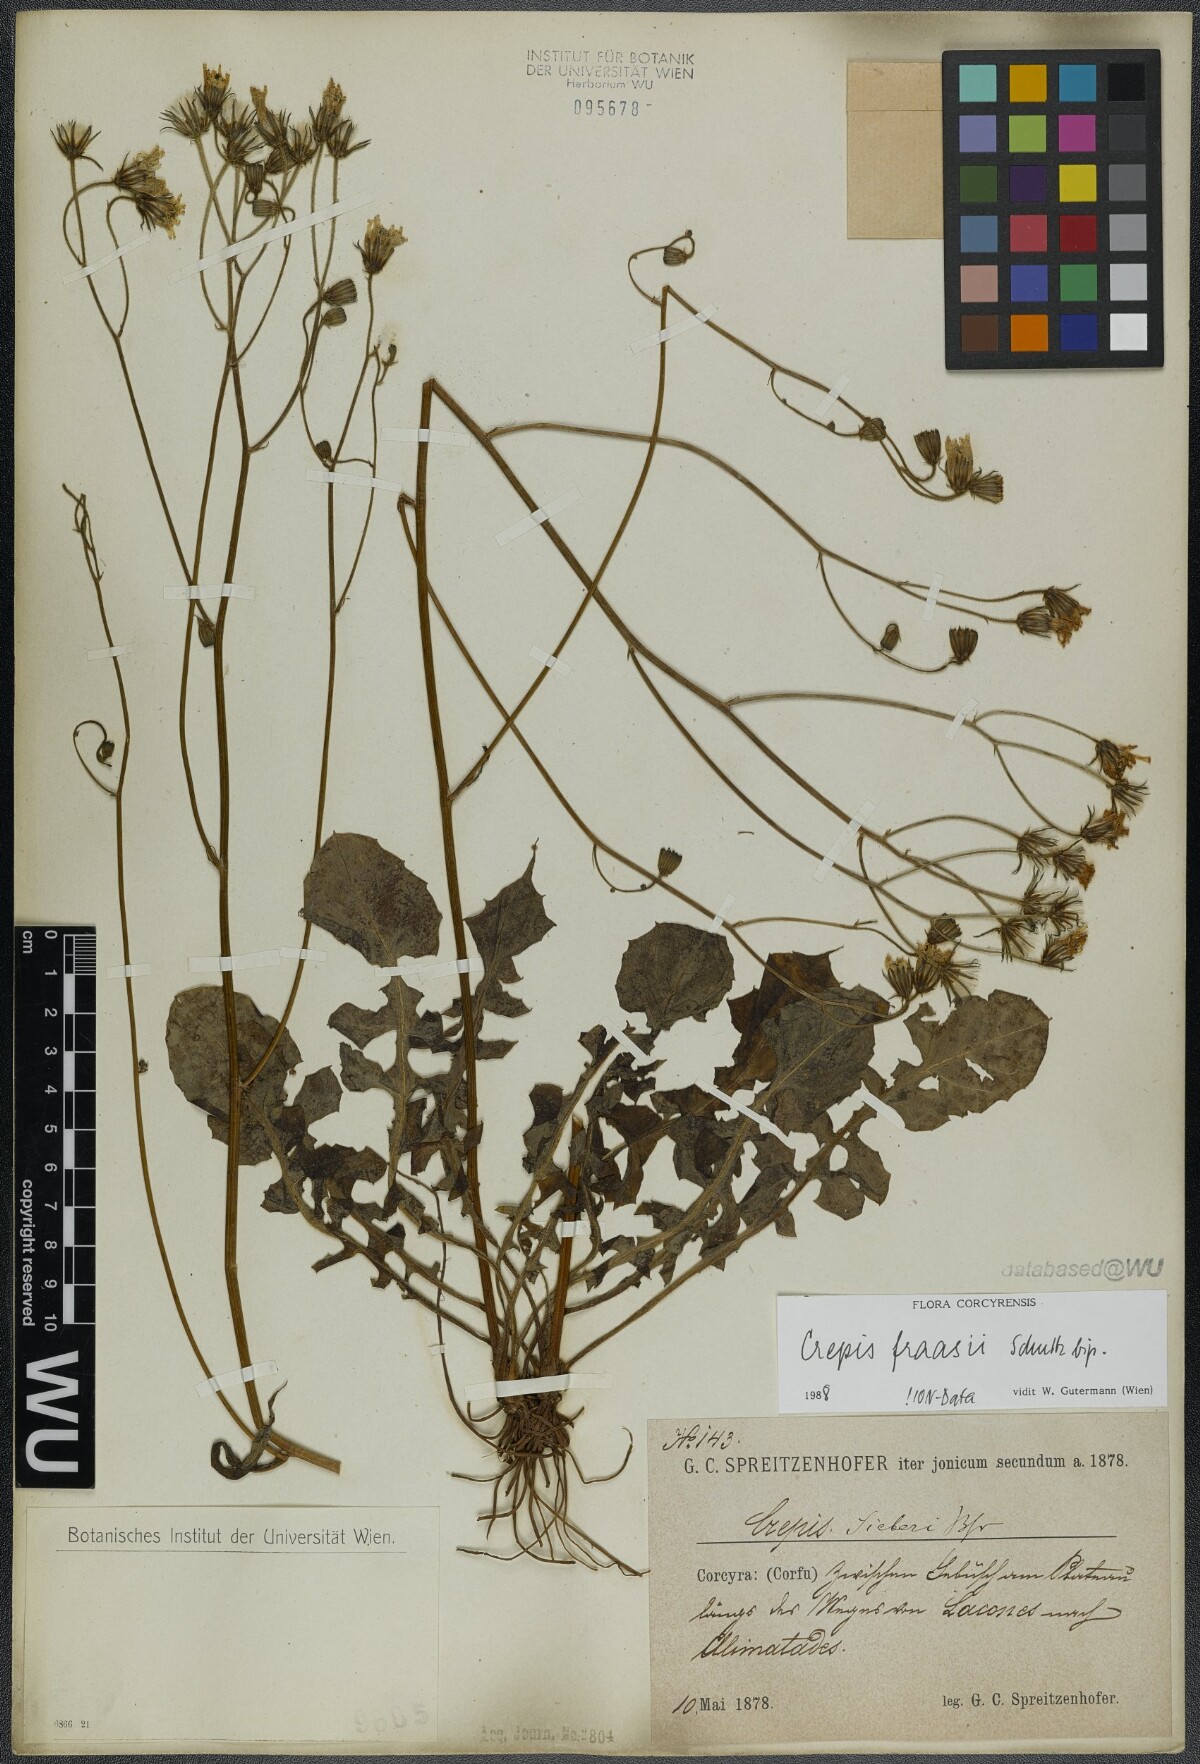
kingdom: Plantae
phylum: Tracheophyta
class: Magnoliopsida
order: Asterales
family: Asteraceae
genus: Crepis
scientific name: Crepis fraasii
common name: Hawk's-beard
